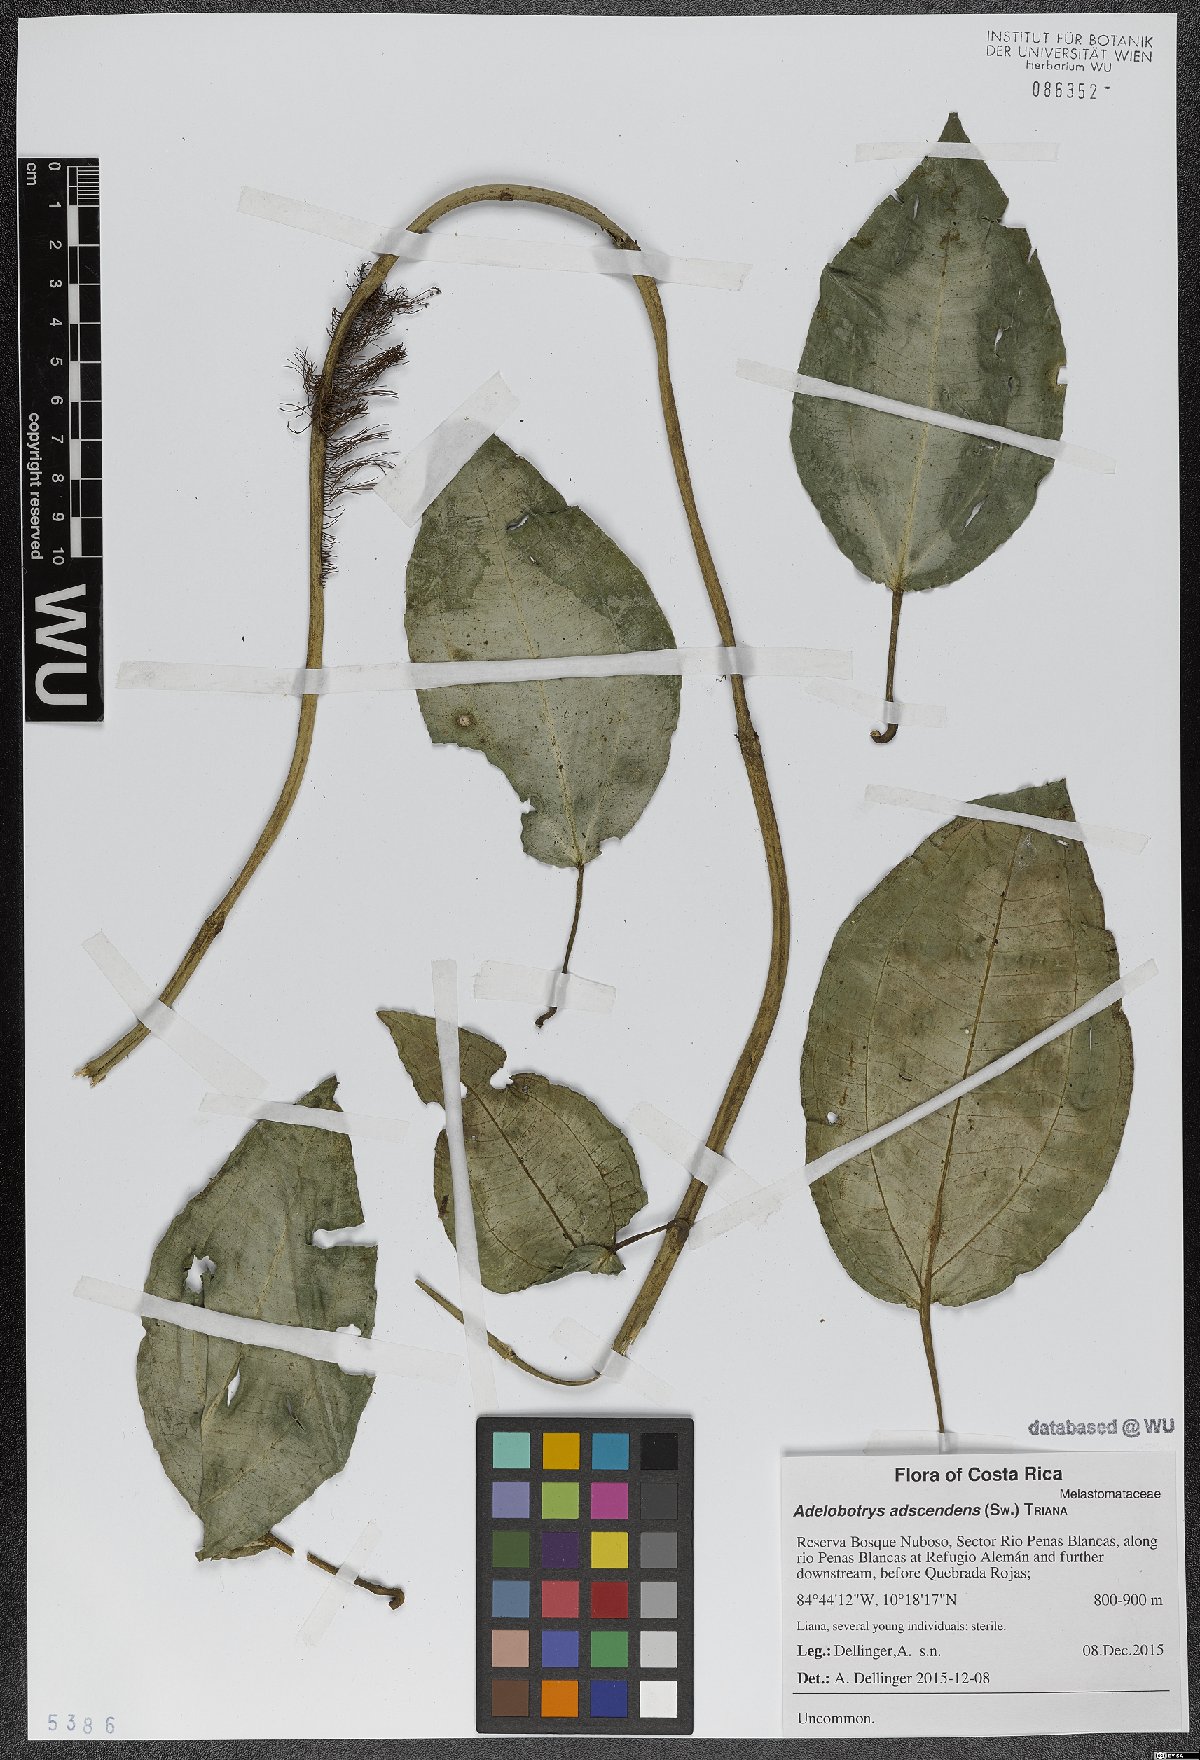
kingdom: Plantae
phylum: Tracheophyta
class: Magnoliopsida
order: Myrtales
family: Melastomataceae
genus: Adelobotrys
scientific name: Adelobotrys adscendens
